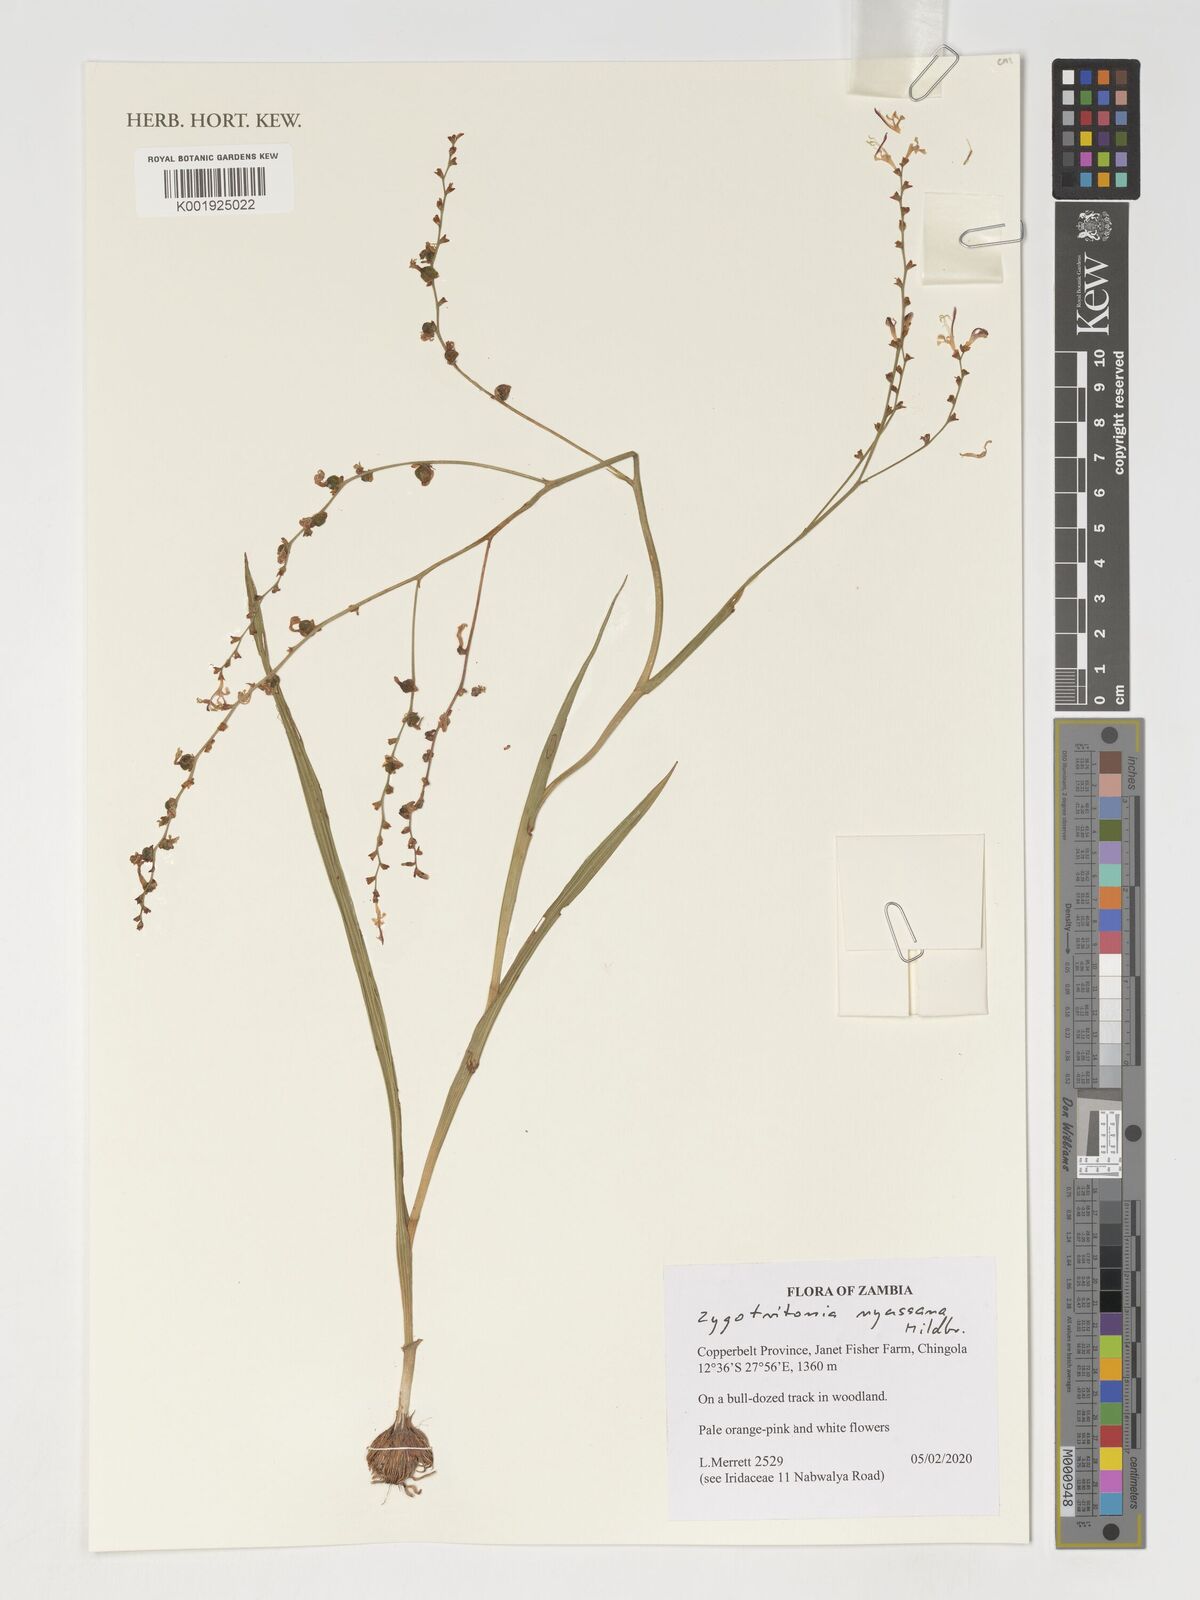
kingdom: Plantae
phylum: Tracheophyta
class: Liliopsida
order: Asparagales
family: Iridaceae
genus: Zygotritonia
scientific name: Zygotritonia nyassana
